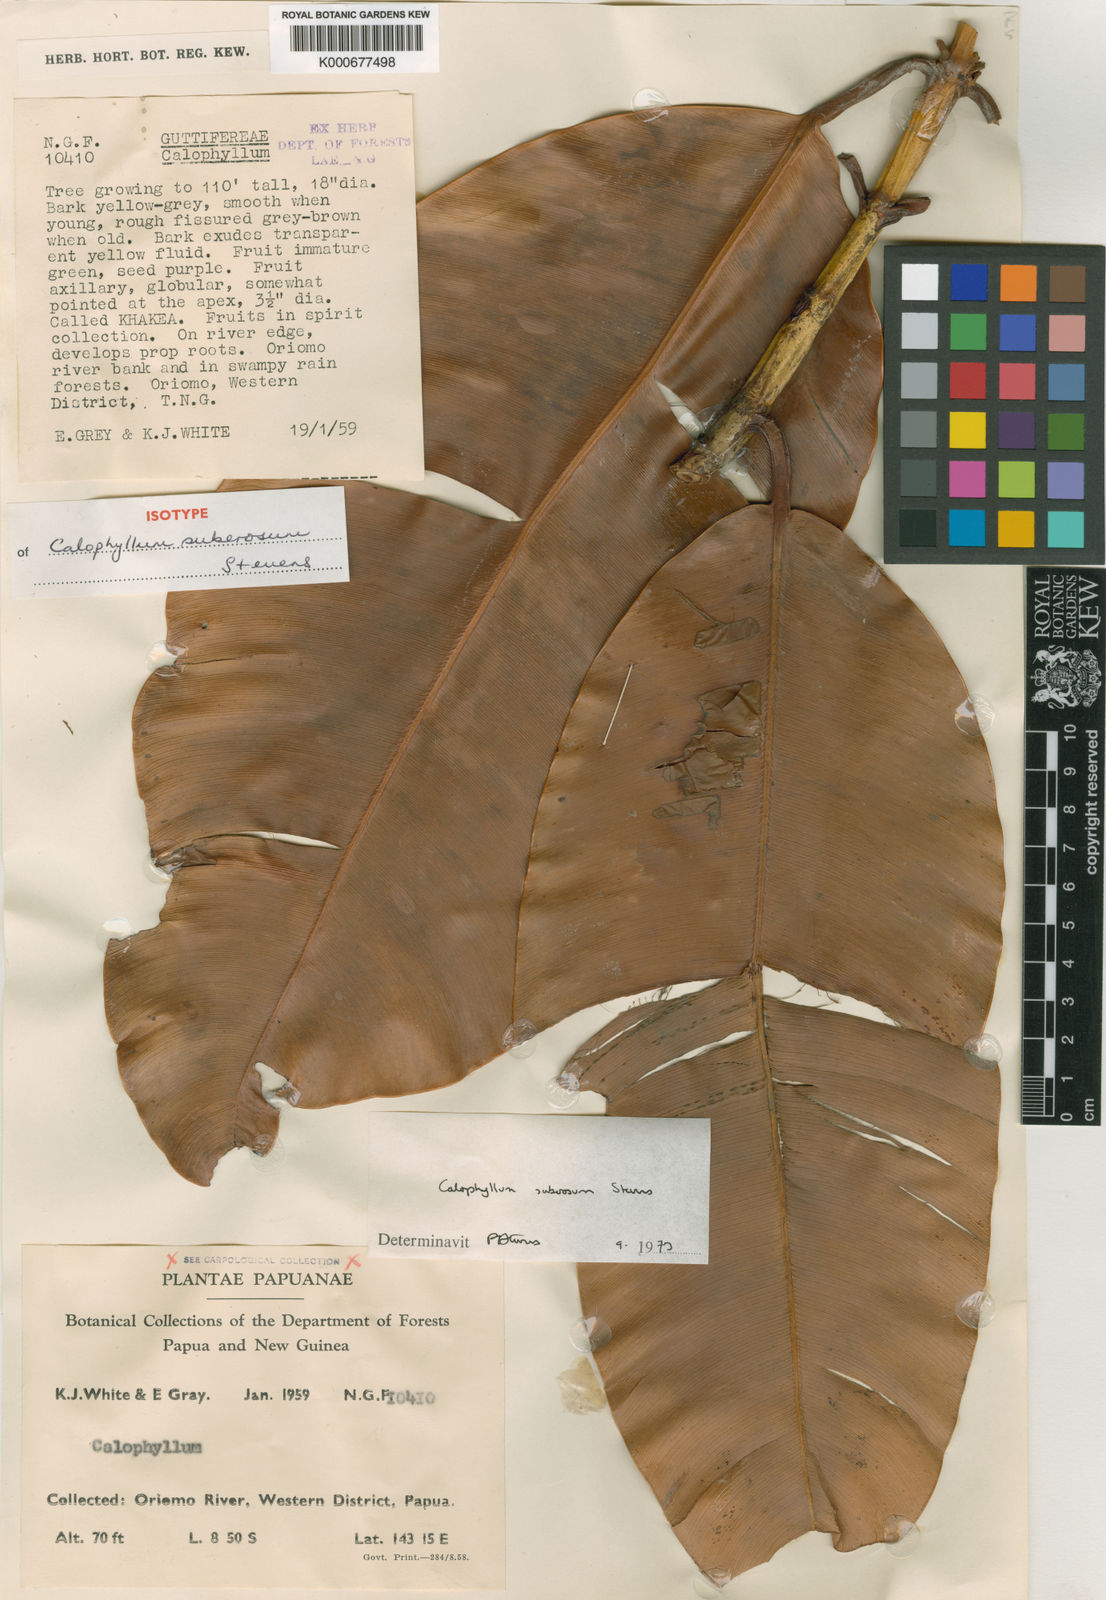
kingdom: Plantae
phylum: Tracheophyta
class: Magnoliopsida
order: Malpighiales
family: Calophyllaceae
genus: Calophyllum
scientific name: Calophyllum suberosum
